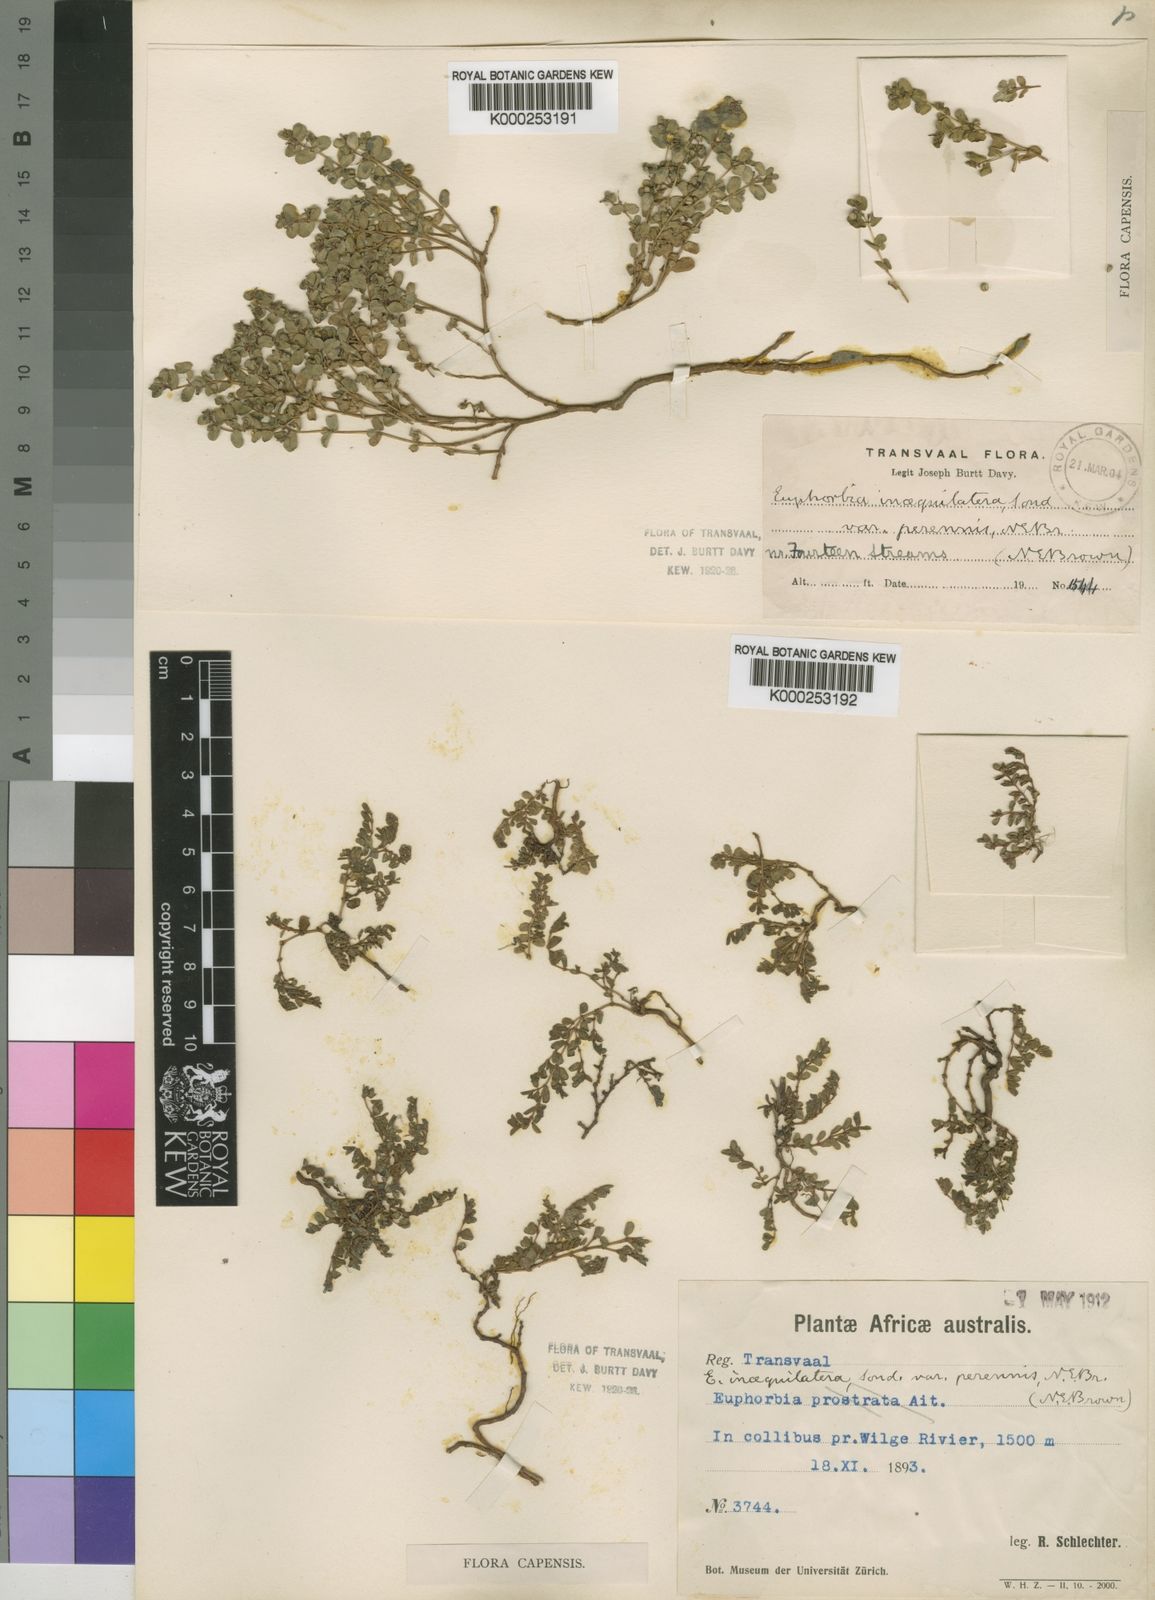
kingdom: Plantae
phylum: Tracheophyta
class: Magnoliopsida
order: Malpighiales
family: Euphorbiaceae
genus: Euphorbia
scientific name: Euphorbia inaequilatera
